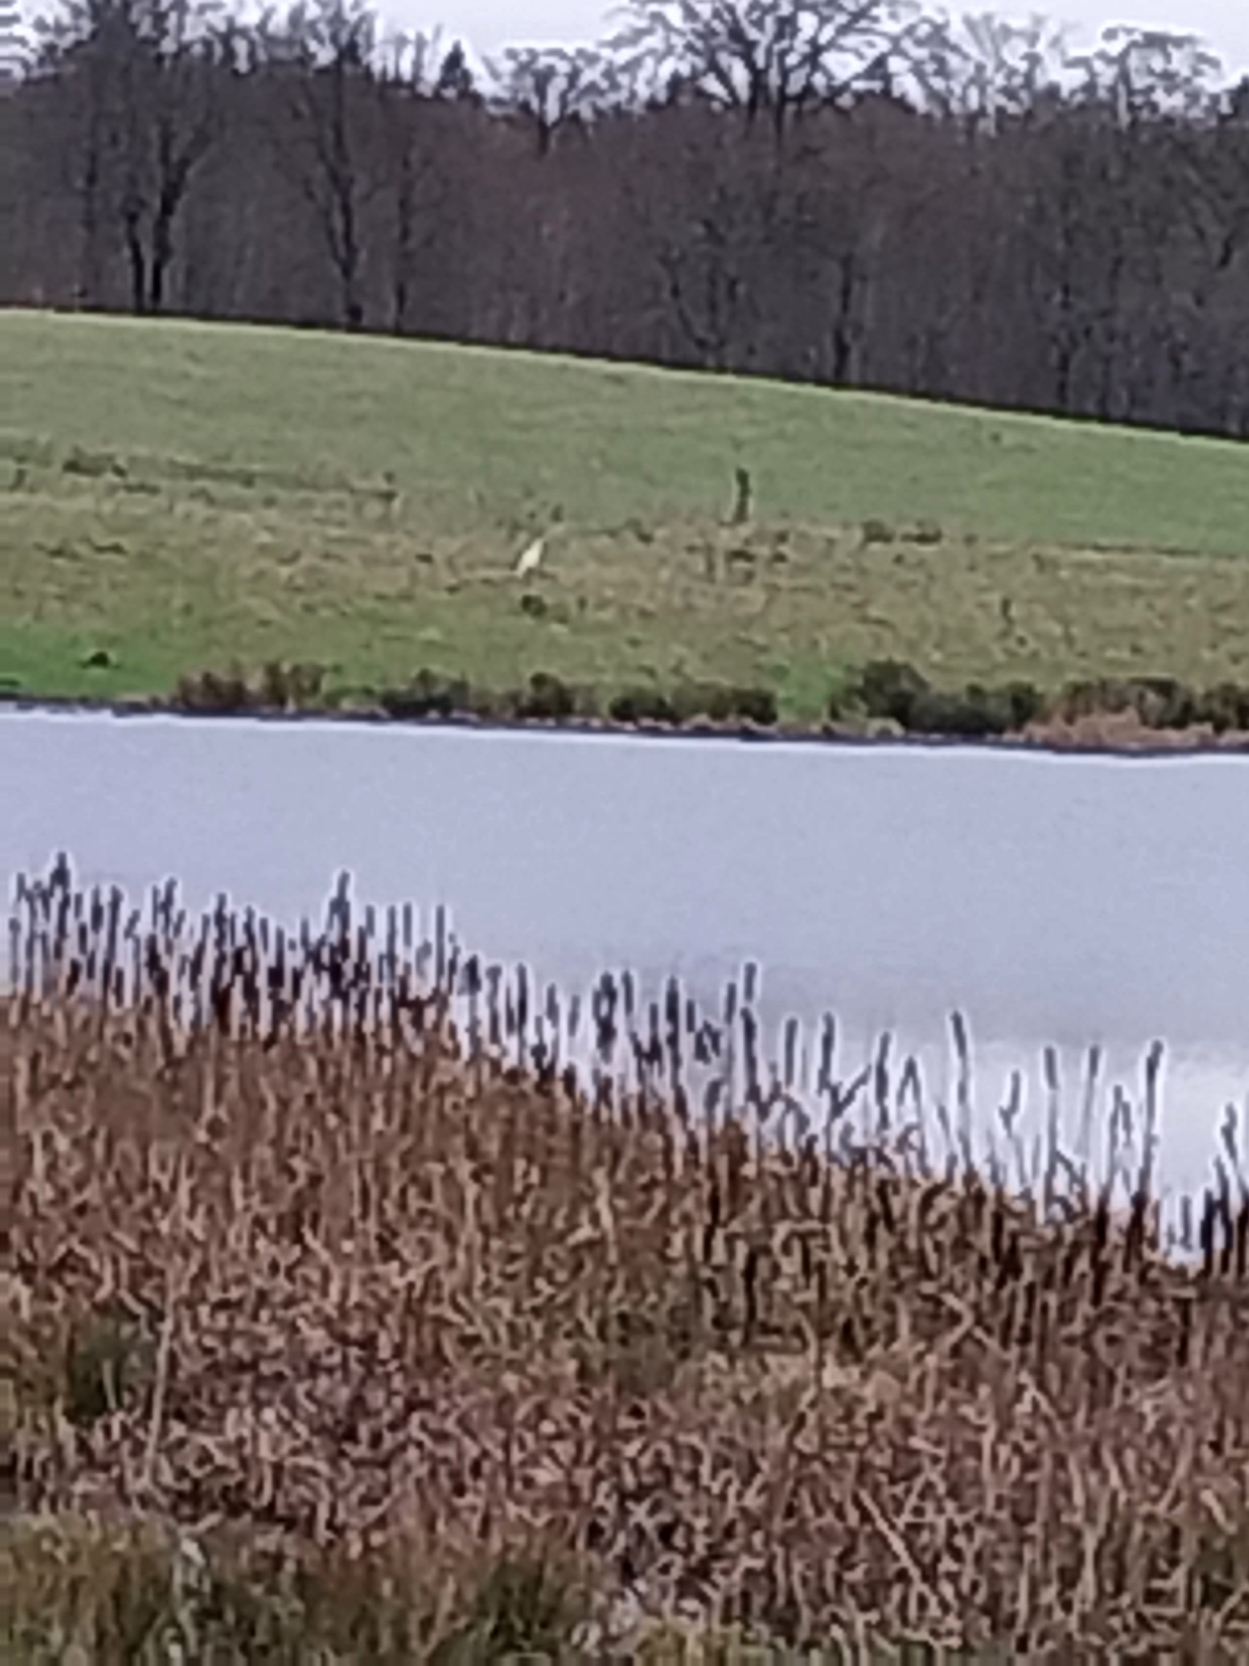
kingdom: Animalia
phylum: Chordata
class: Aves
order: Pelecaniformes
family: Ardeidae
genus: Ardea
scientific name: Ardea alba
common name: Sølvhejre
